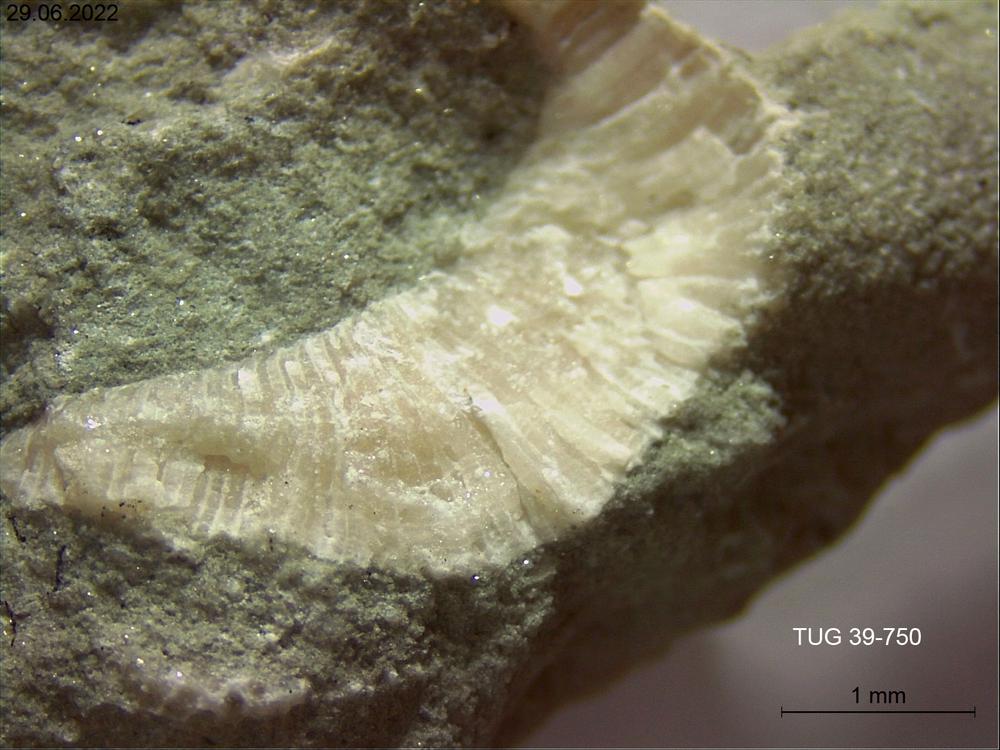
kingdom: Animalia
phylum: Bryozoa
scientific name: Bryozoa
